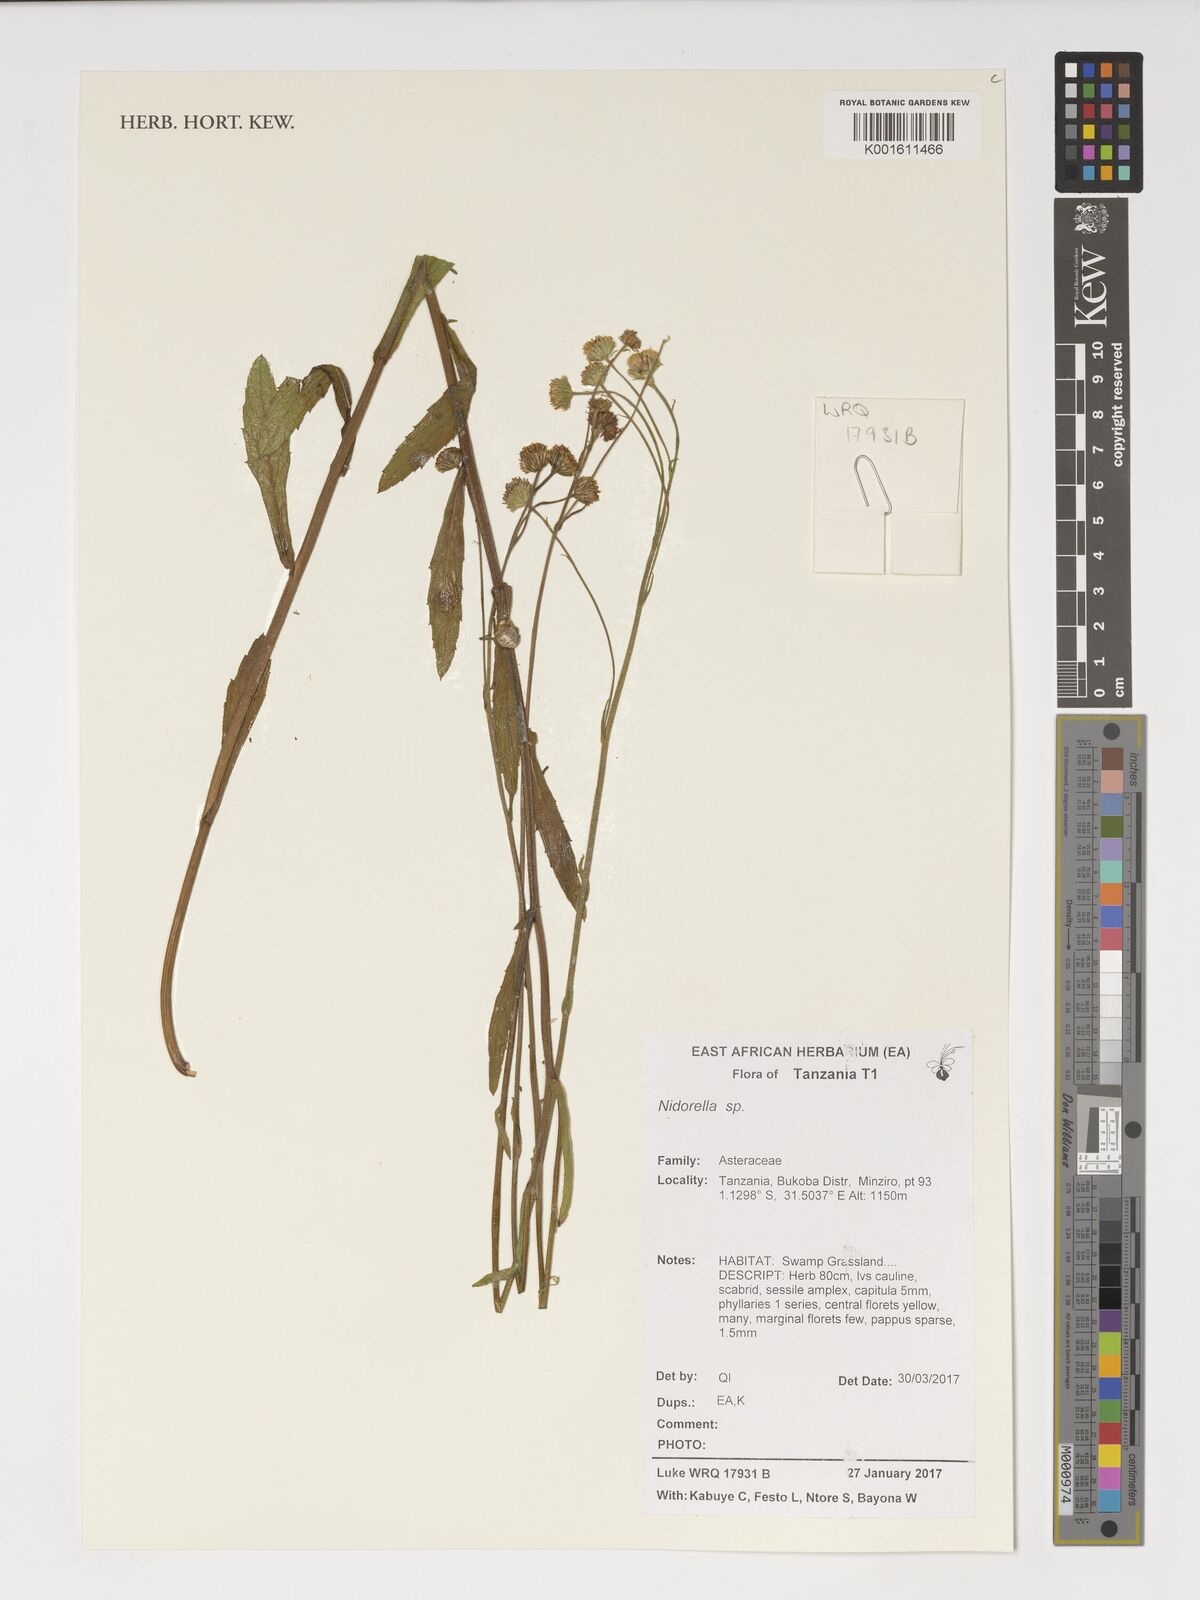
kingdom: Plantae
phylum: Tracheophyta
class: Magnoliopsida
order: Asterales
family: Asteraceae
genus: Nidorella
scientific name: Nidorella
